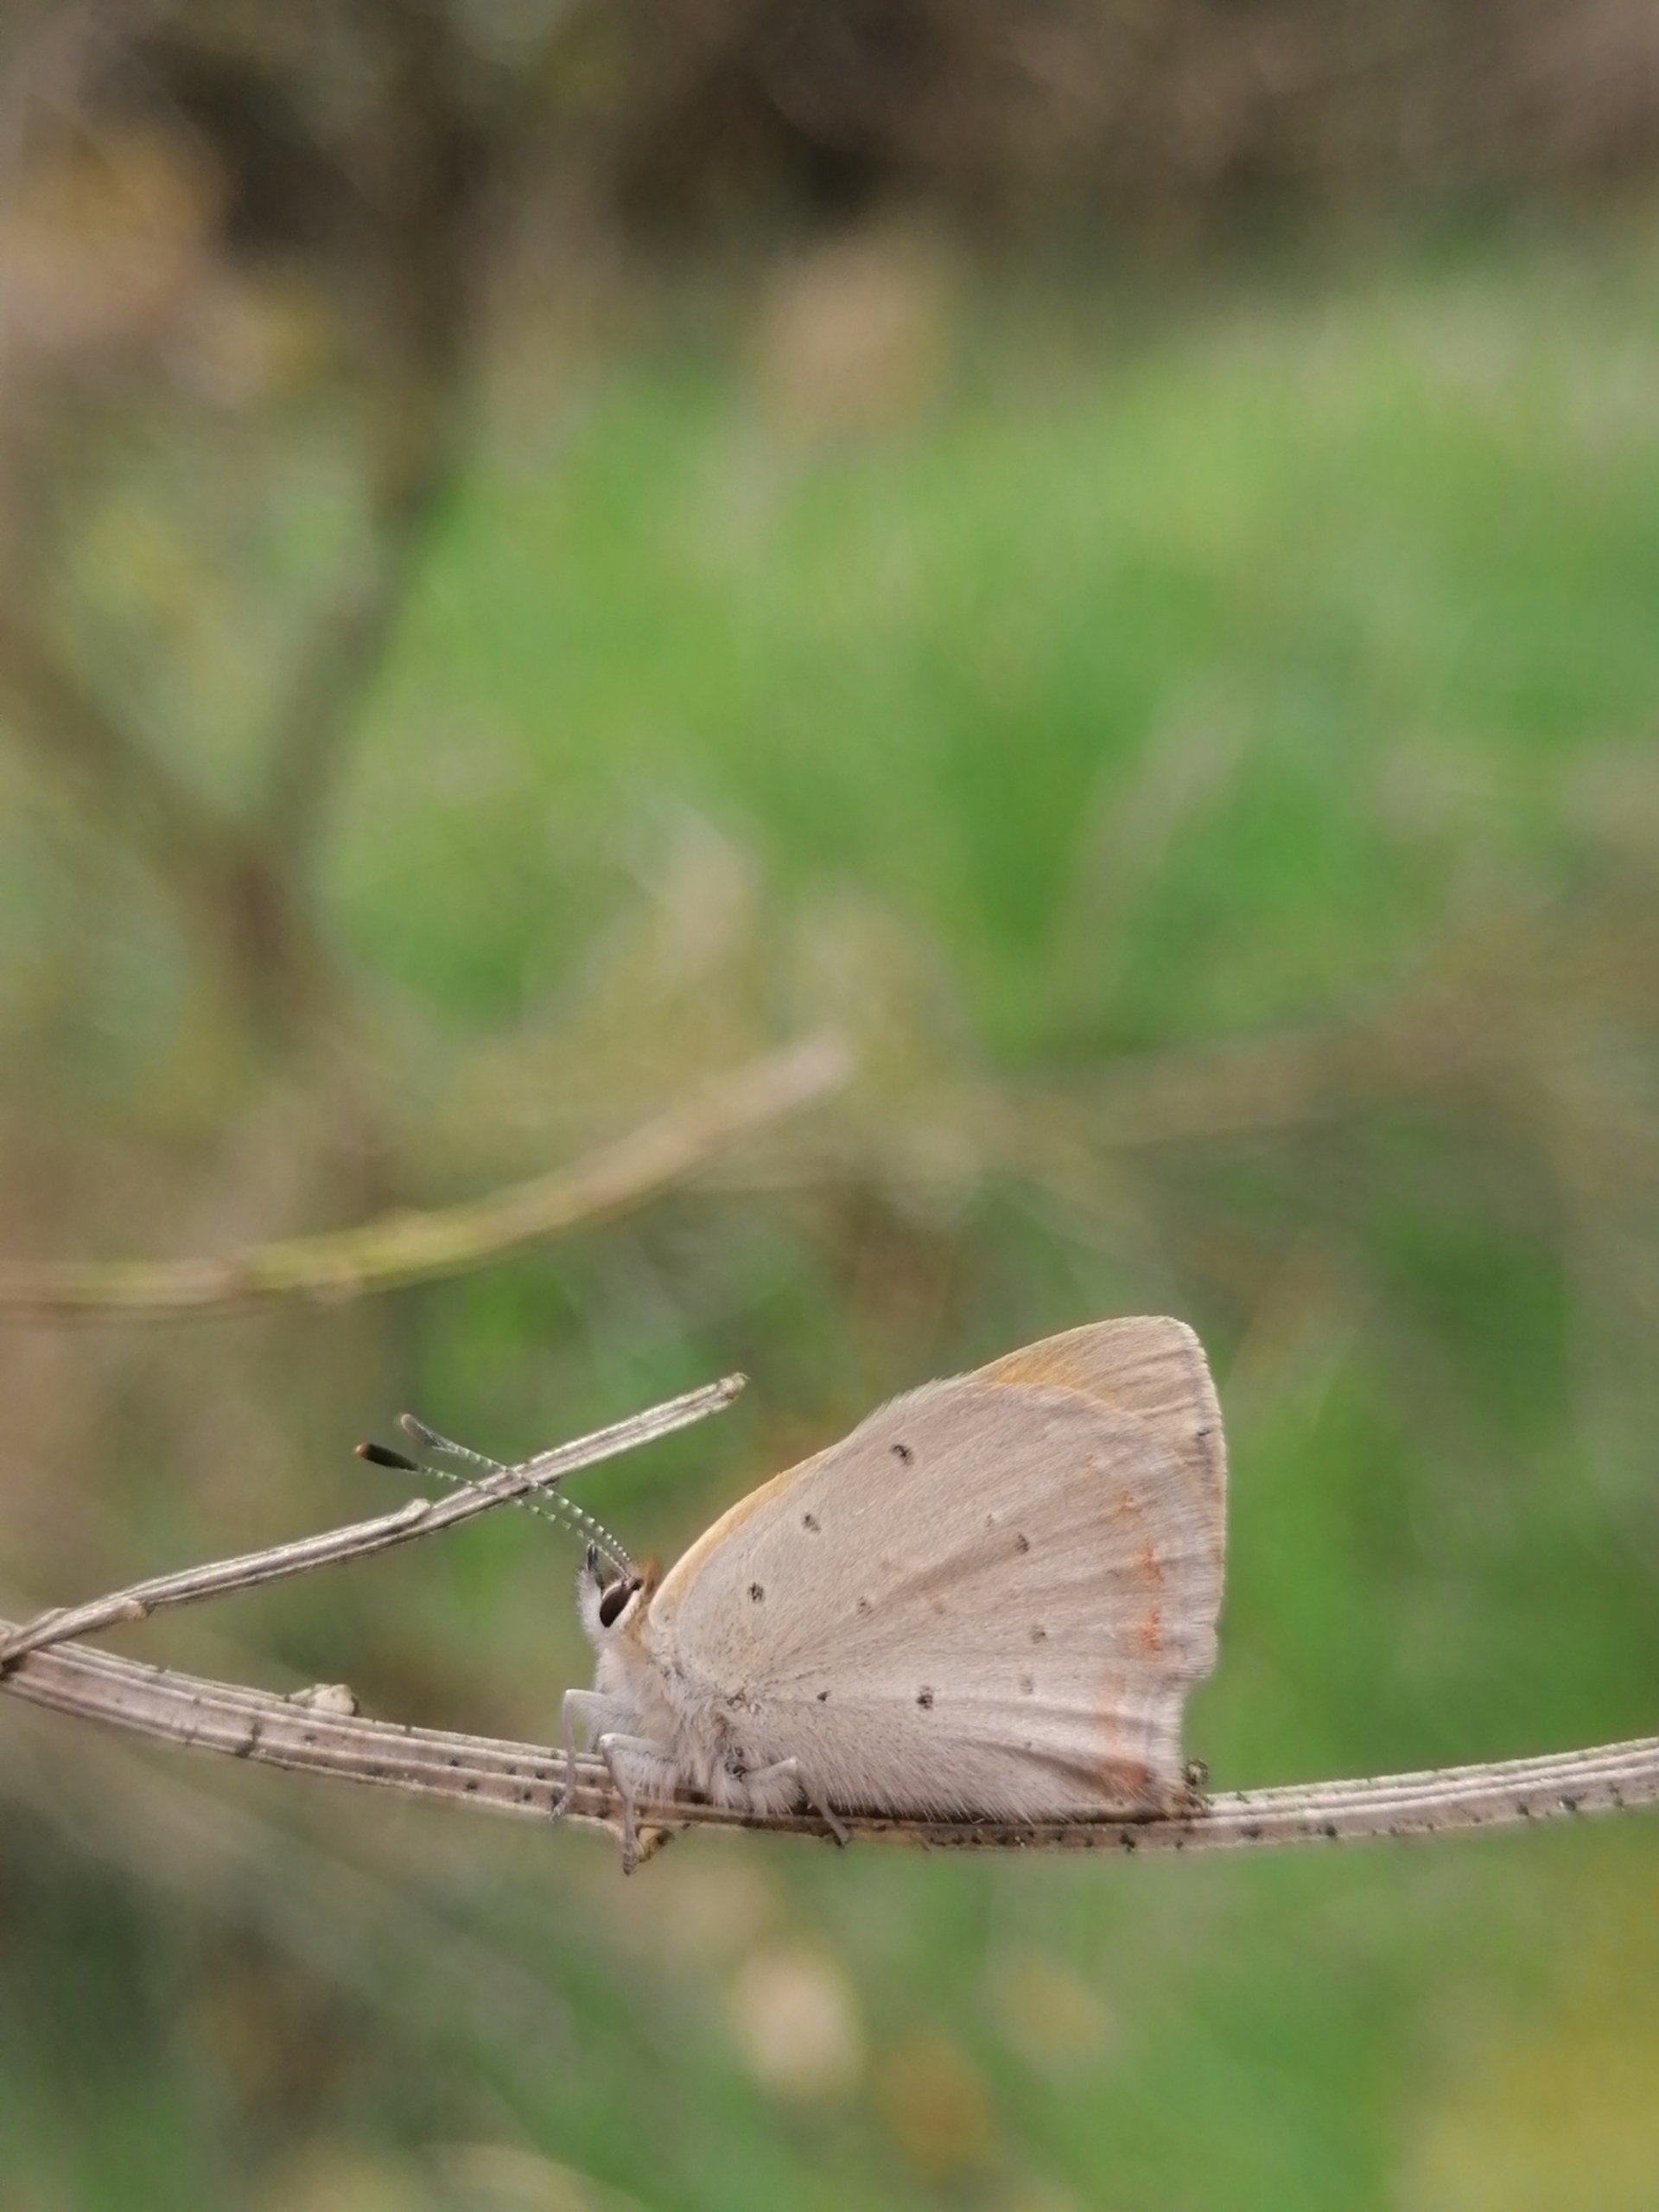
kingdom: Animalia
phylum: Arthropoda
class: Insecta
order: Lepidoptera
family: Lycaenidae
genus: Lycaena
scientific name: Lycaena phlaeas
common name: Lille ildfugl
